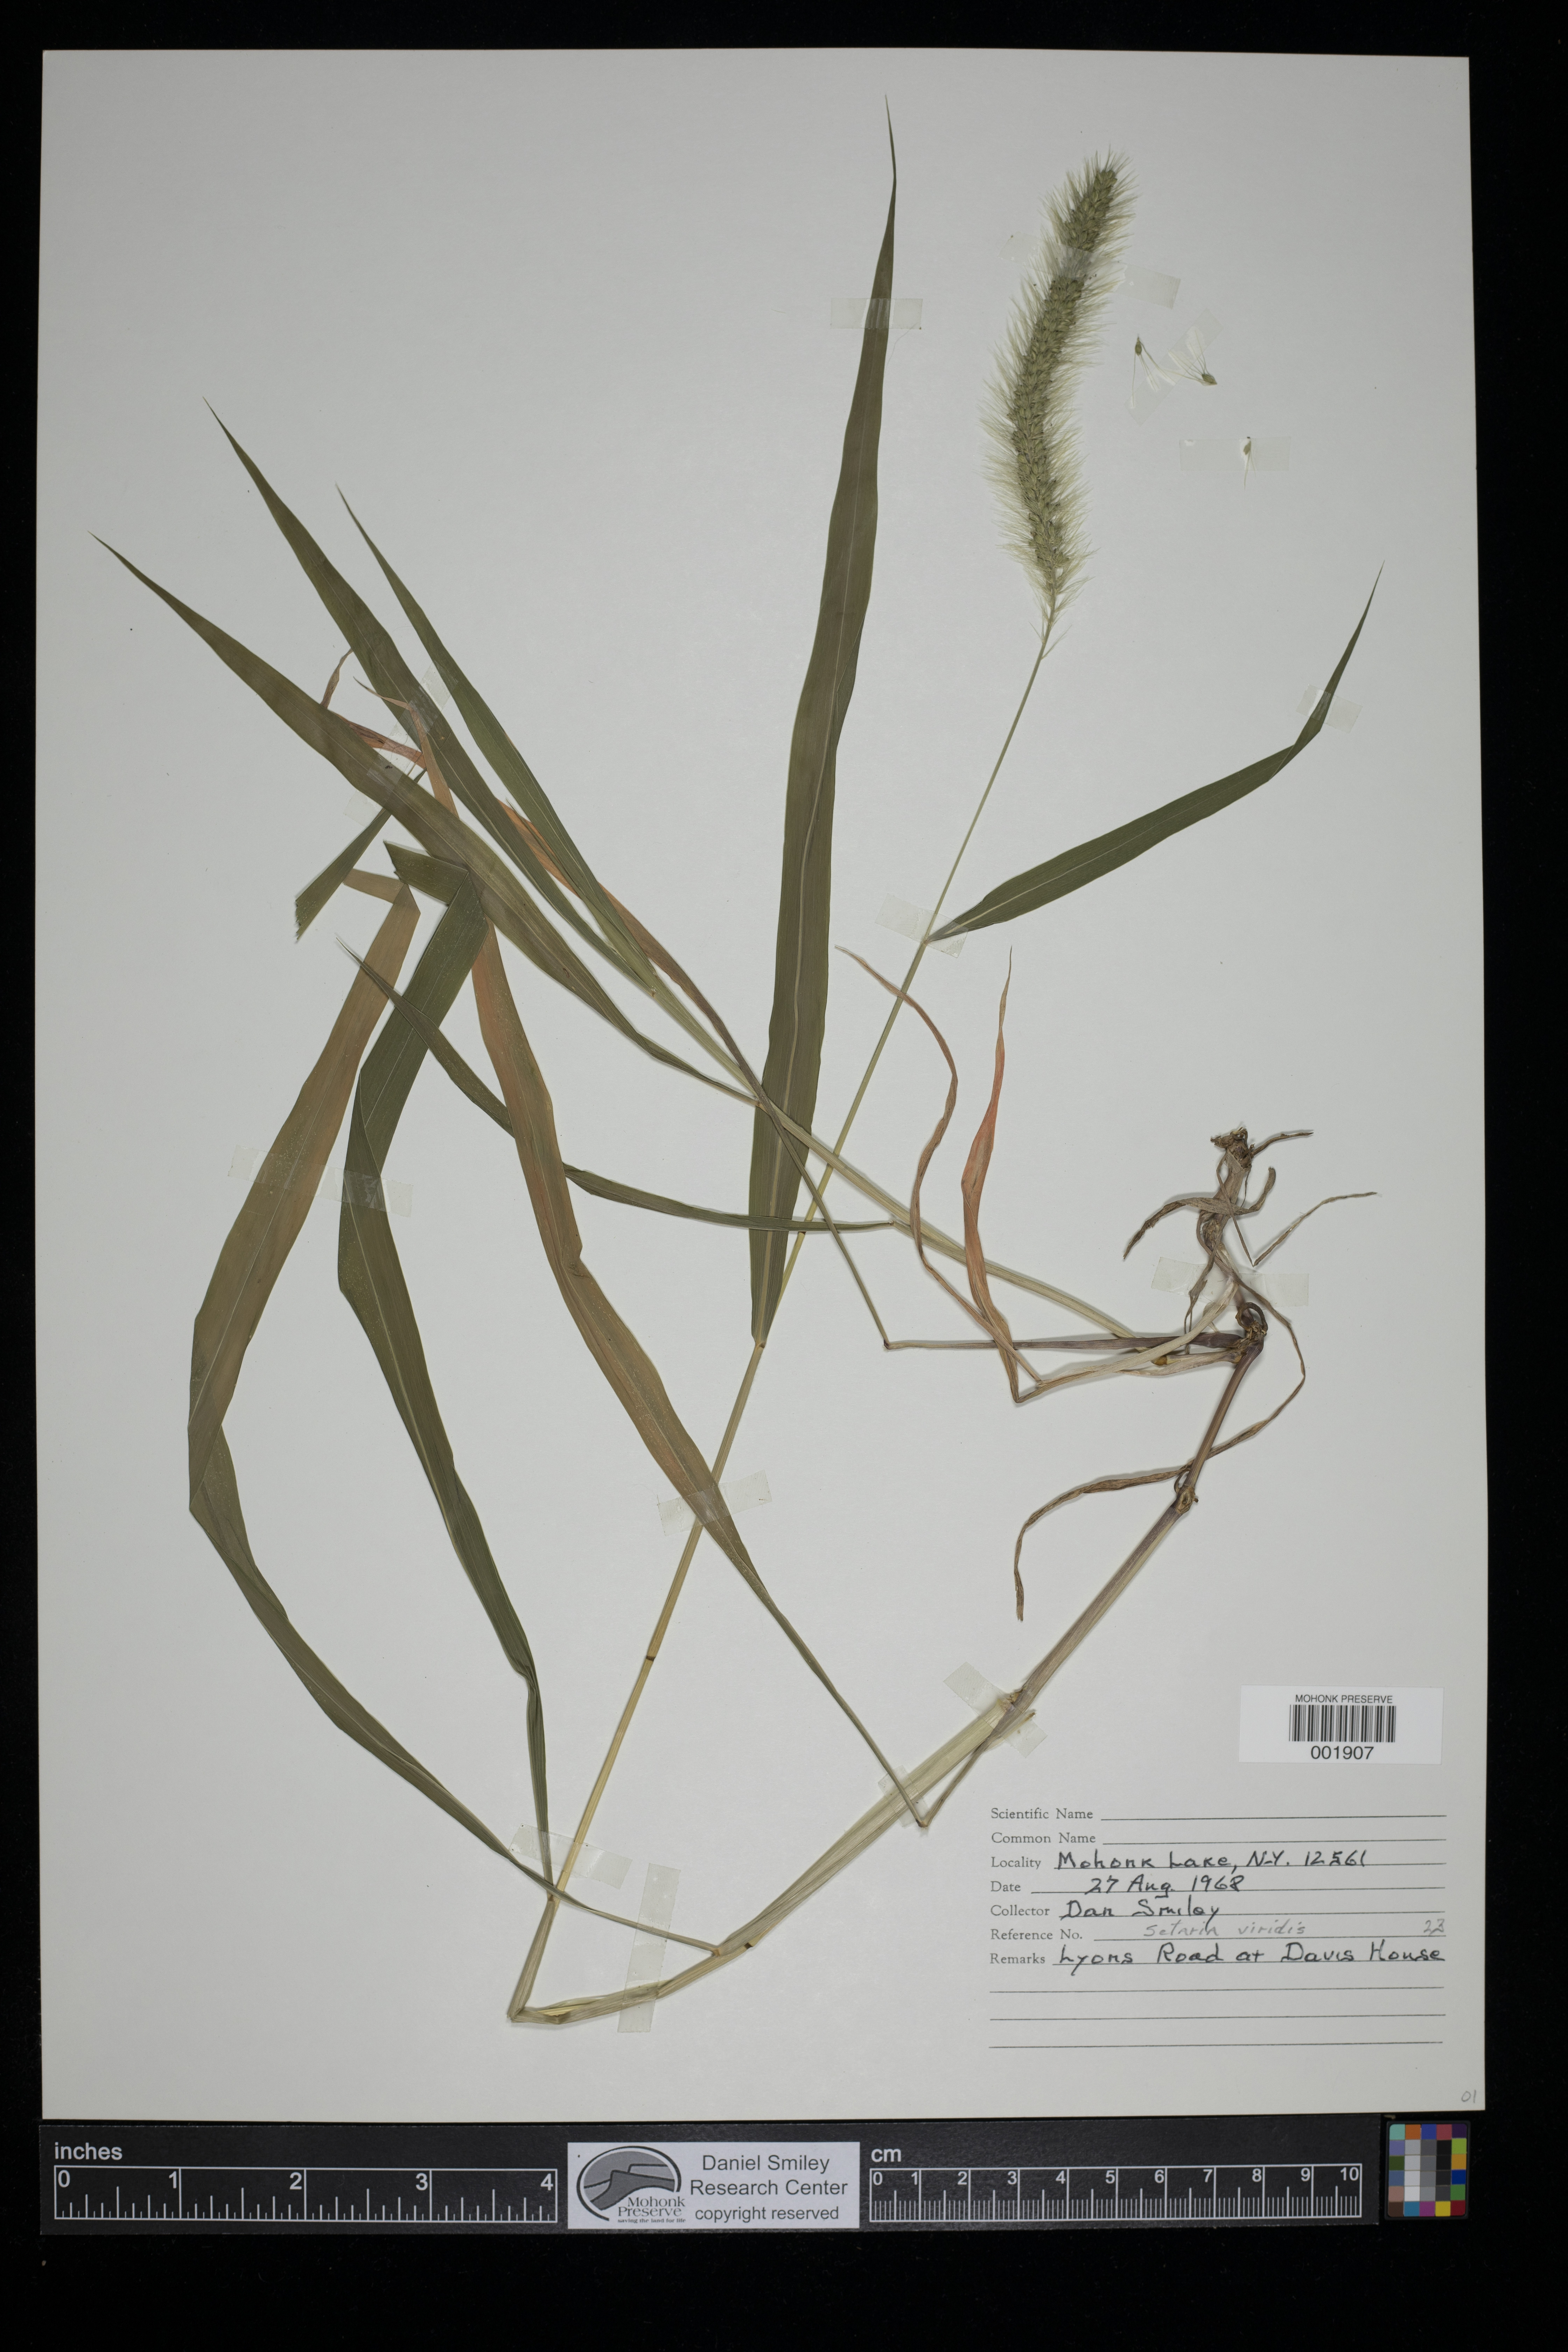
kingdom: Plantae
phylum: Tracheophyta
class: Liliopsida
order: Poales
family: Poaceae
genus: Setaria
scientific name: Setaria viridis
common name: Green bristlegrass
